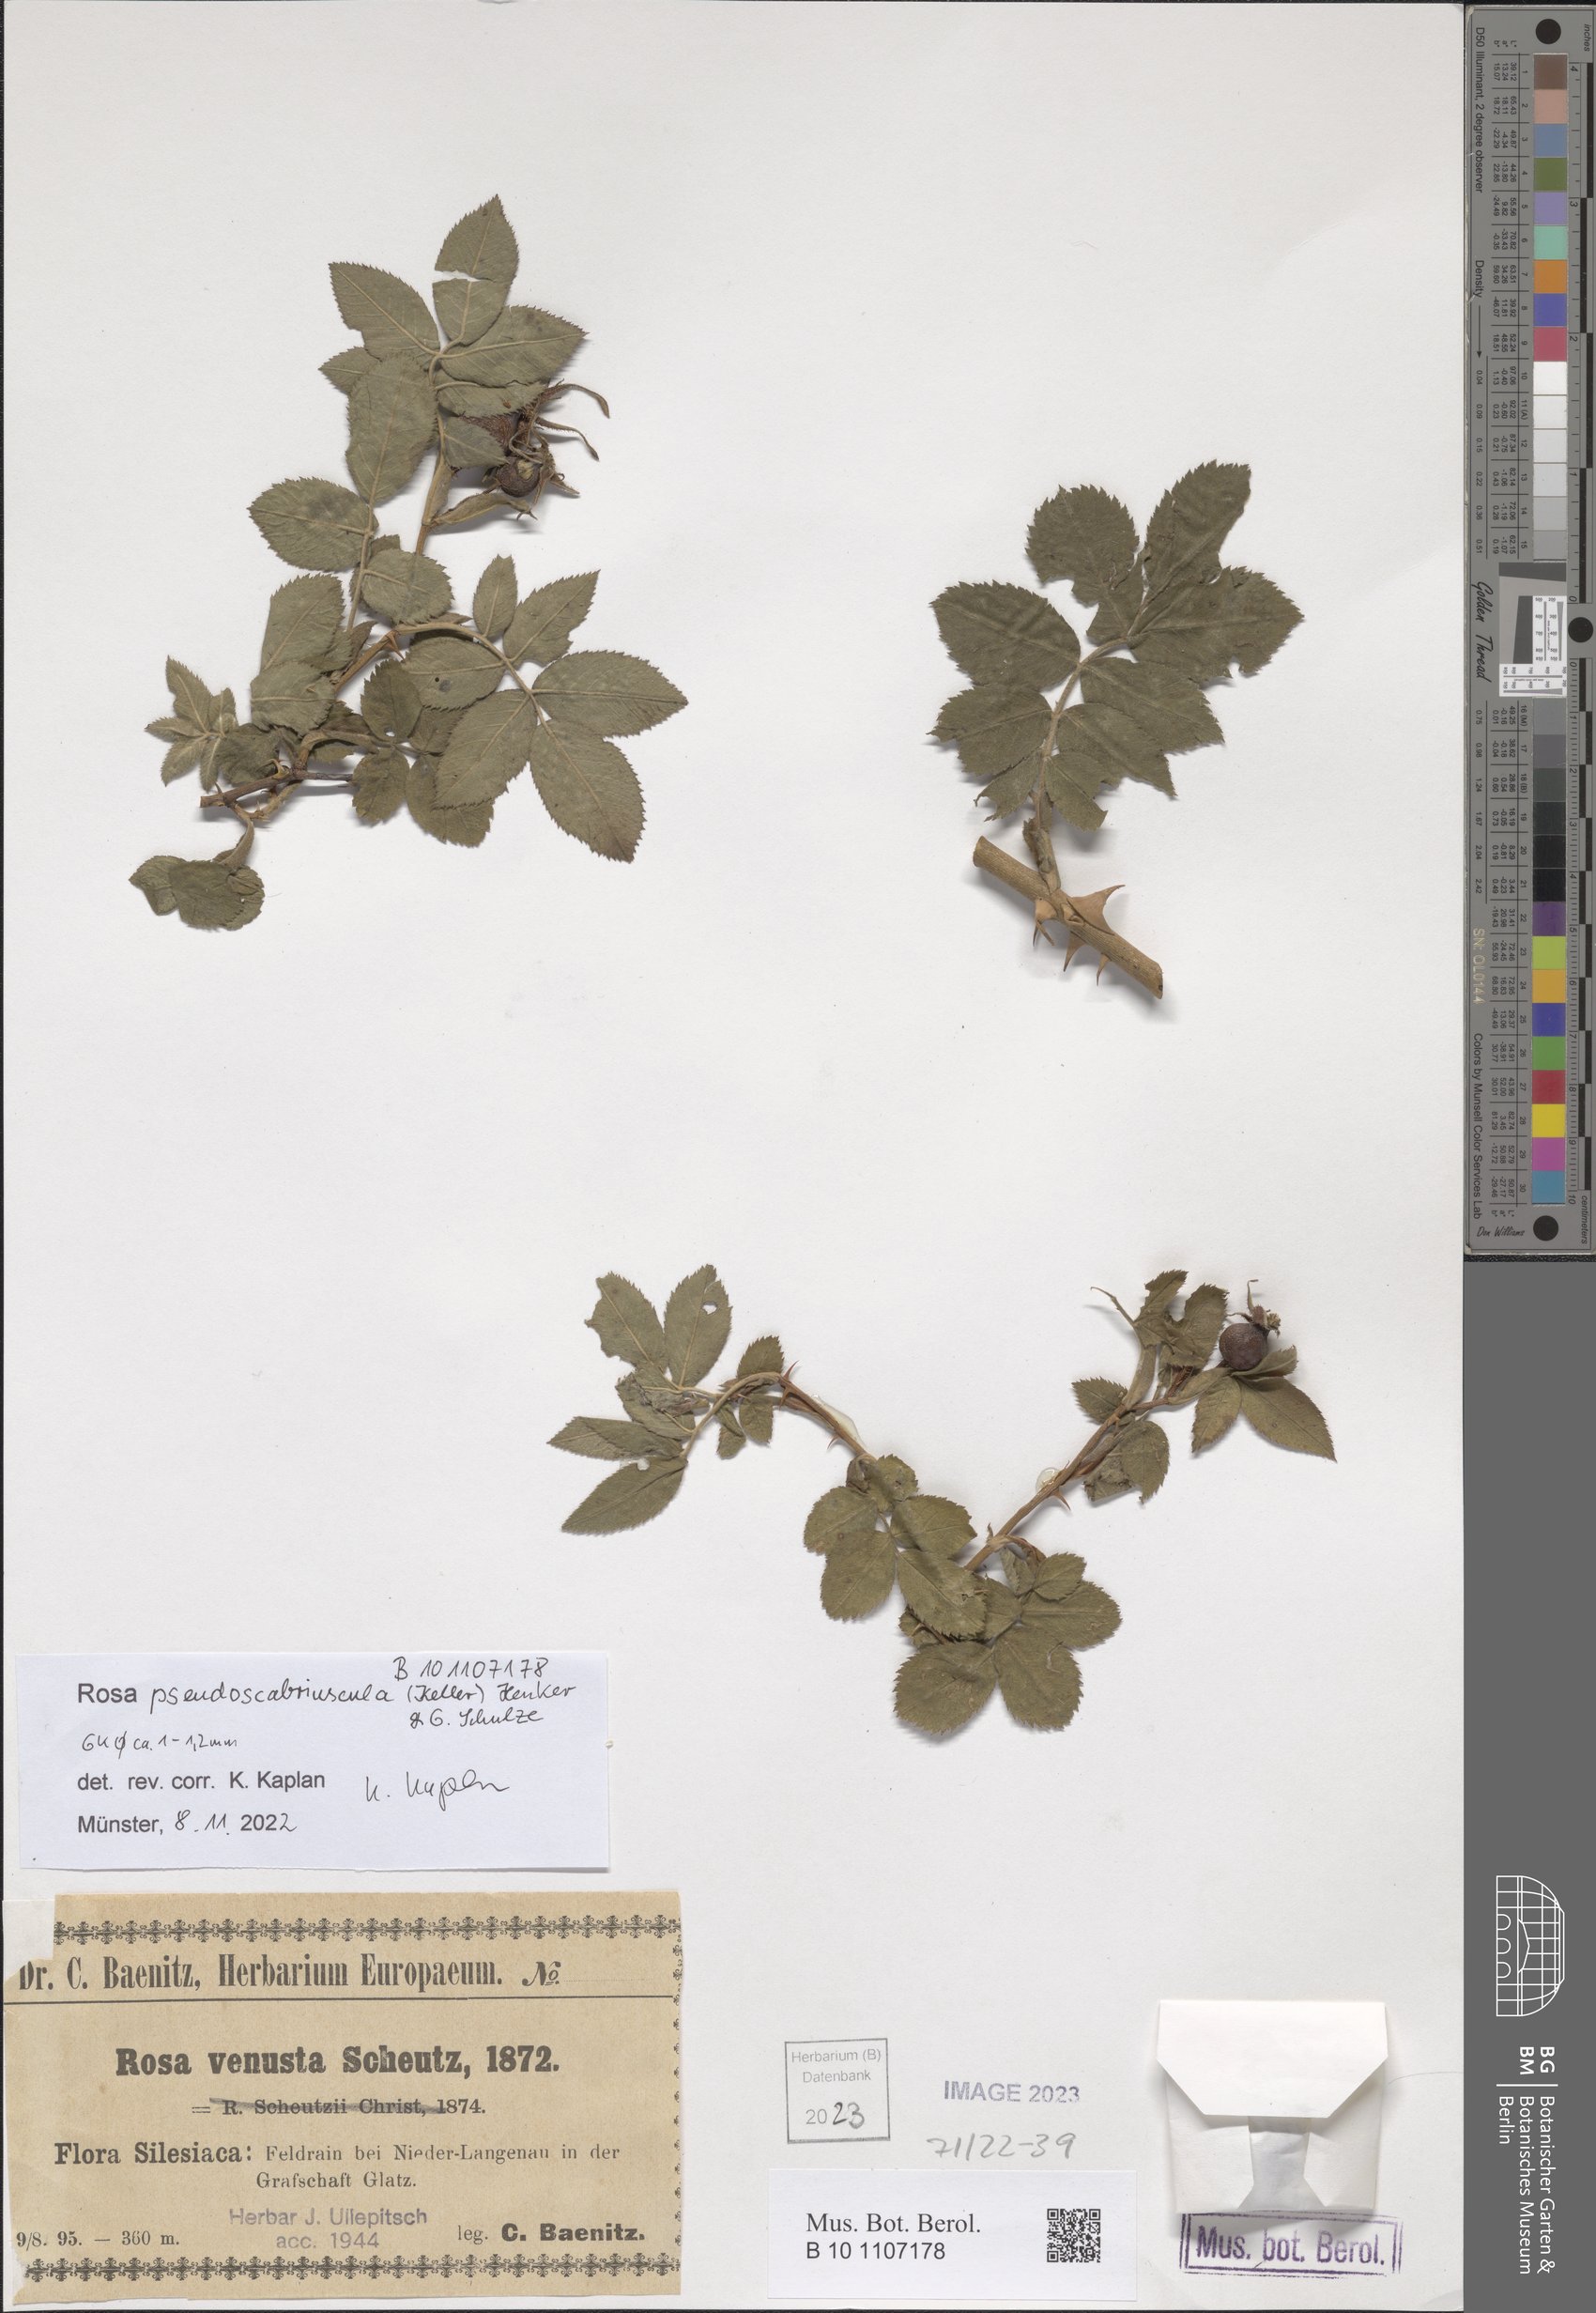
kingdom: Plantae
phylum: Tracheophyta
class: Magnoliopsida
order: Rosales
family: Rosaceae
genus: Rosa
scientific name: Rosa pseudoscabriuscula
